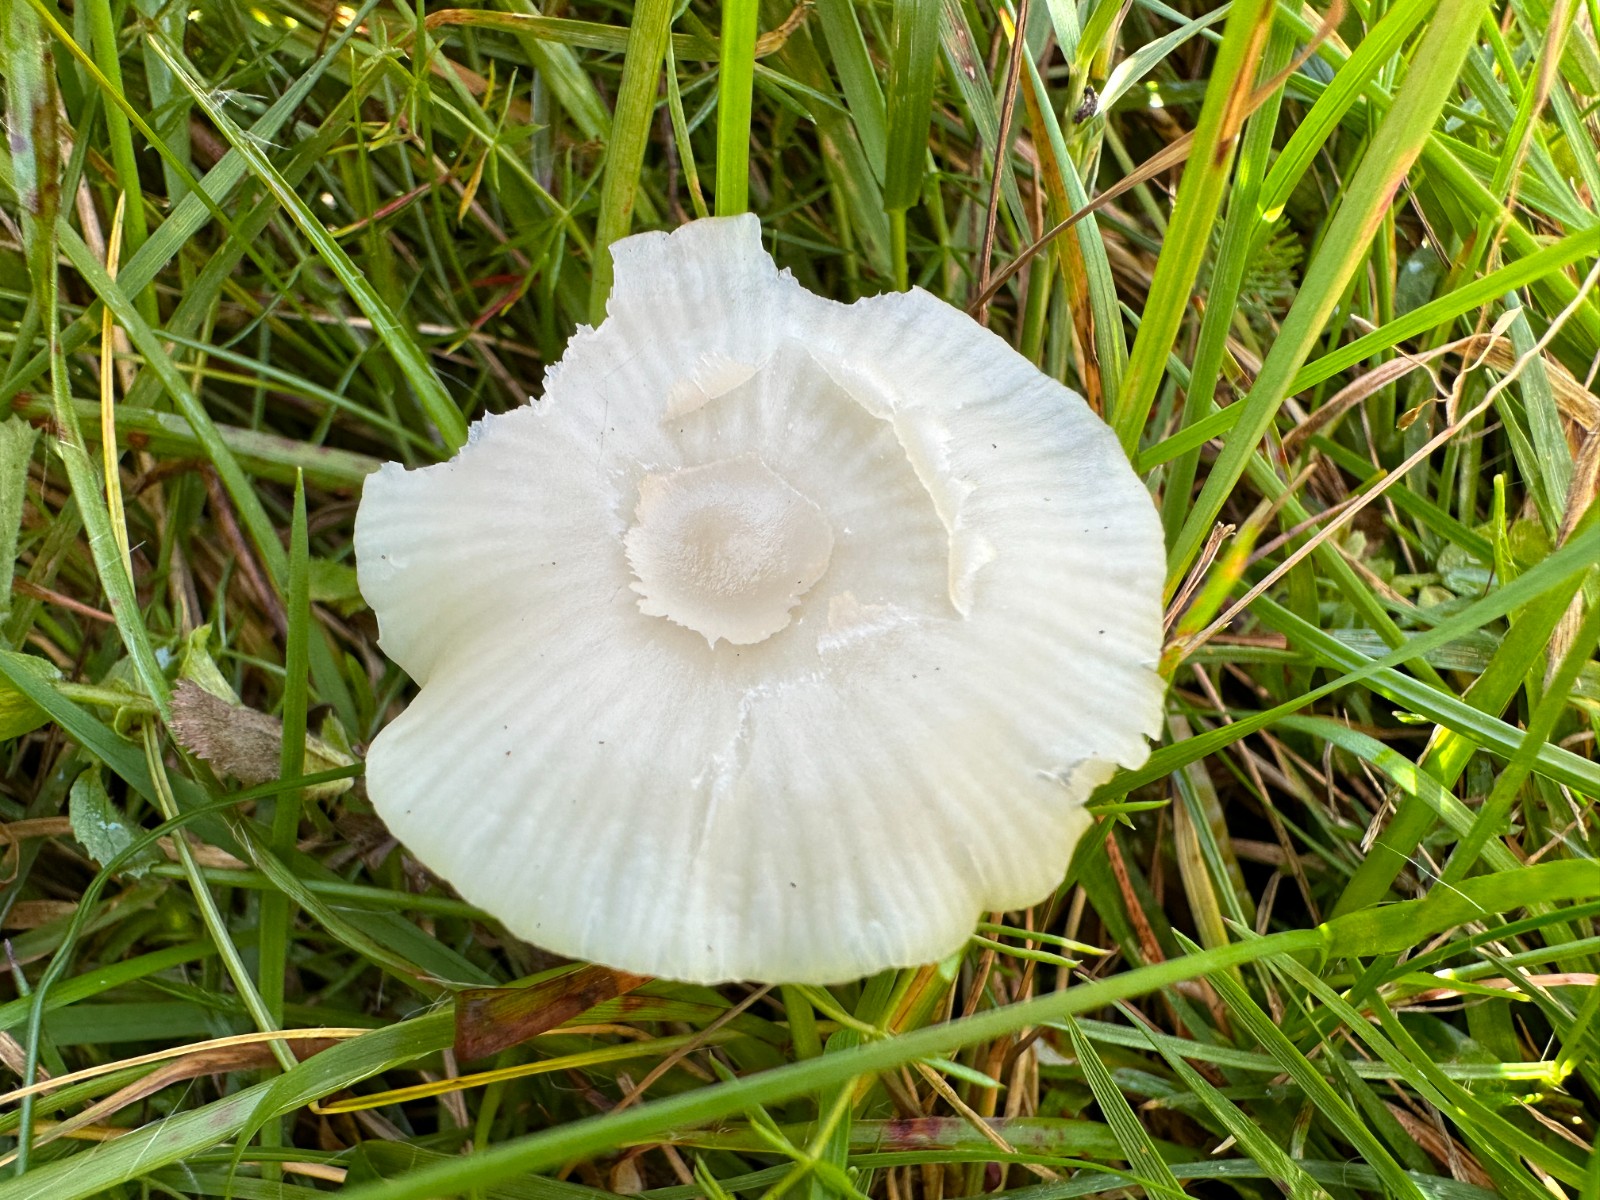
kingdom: Fungi
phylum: Basidiomycota
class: Agaricomycetes
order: Agaricales
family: Hygrophoraceae
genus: Cuphophyllus
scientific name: Cuphophyllus virgineus
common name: snehvid vokshat
